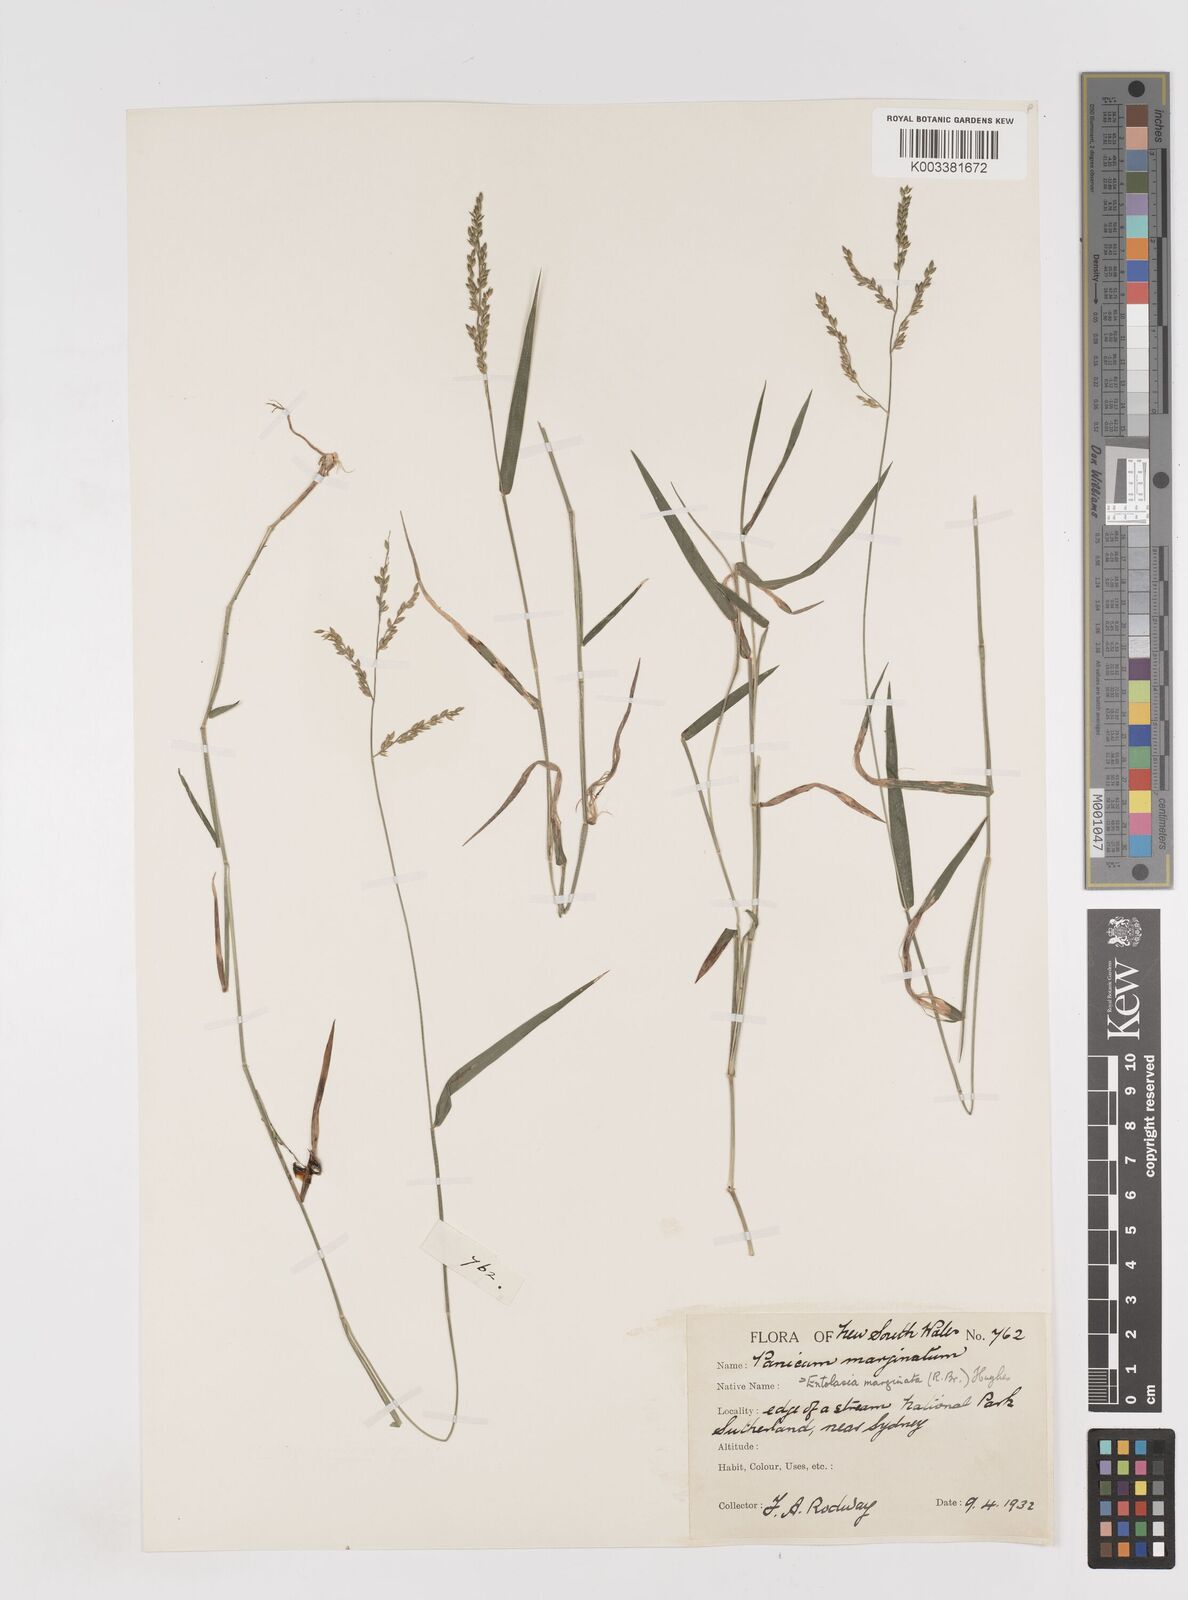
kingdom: Plantae
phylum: Tracheophyta
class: Liliopsida
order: Poales
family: Poaceae
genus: Entolasia
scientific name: Entolasia marginata
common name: Australian panicgrass
